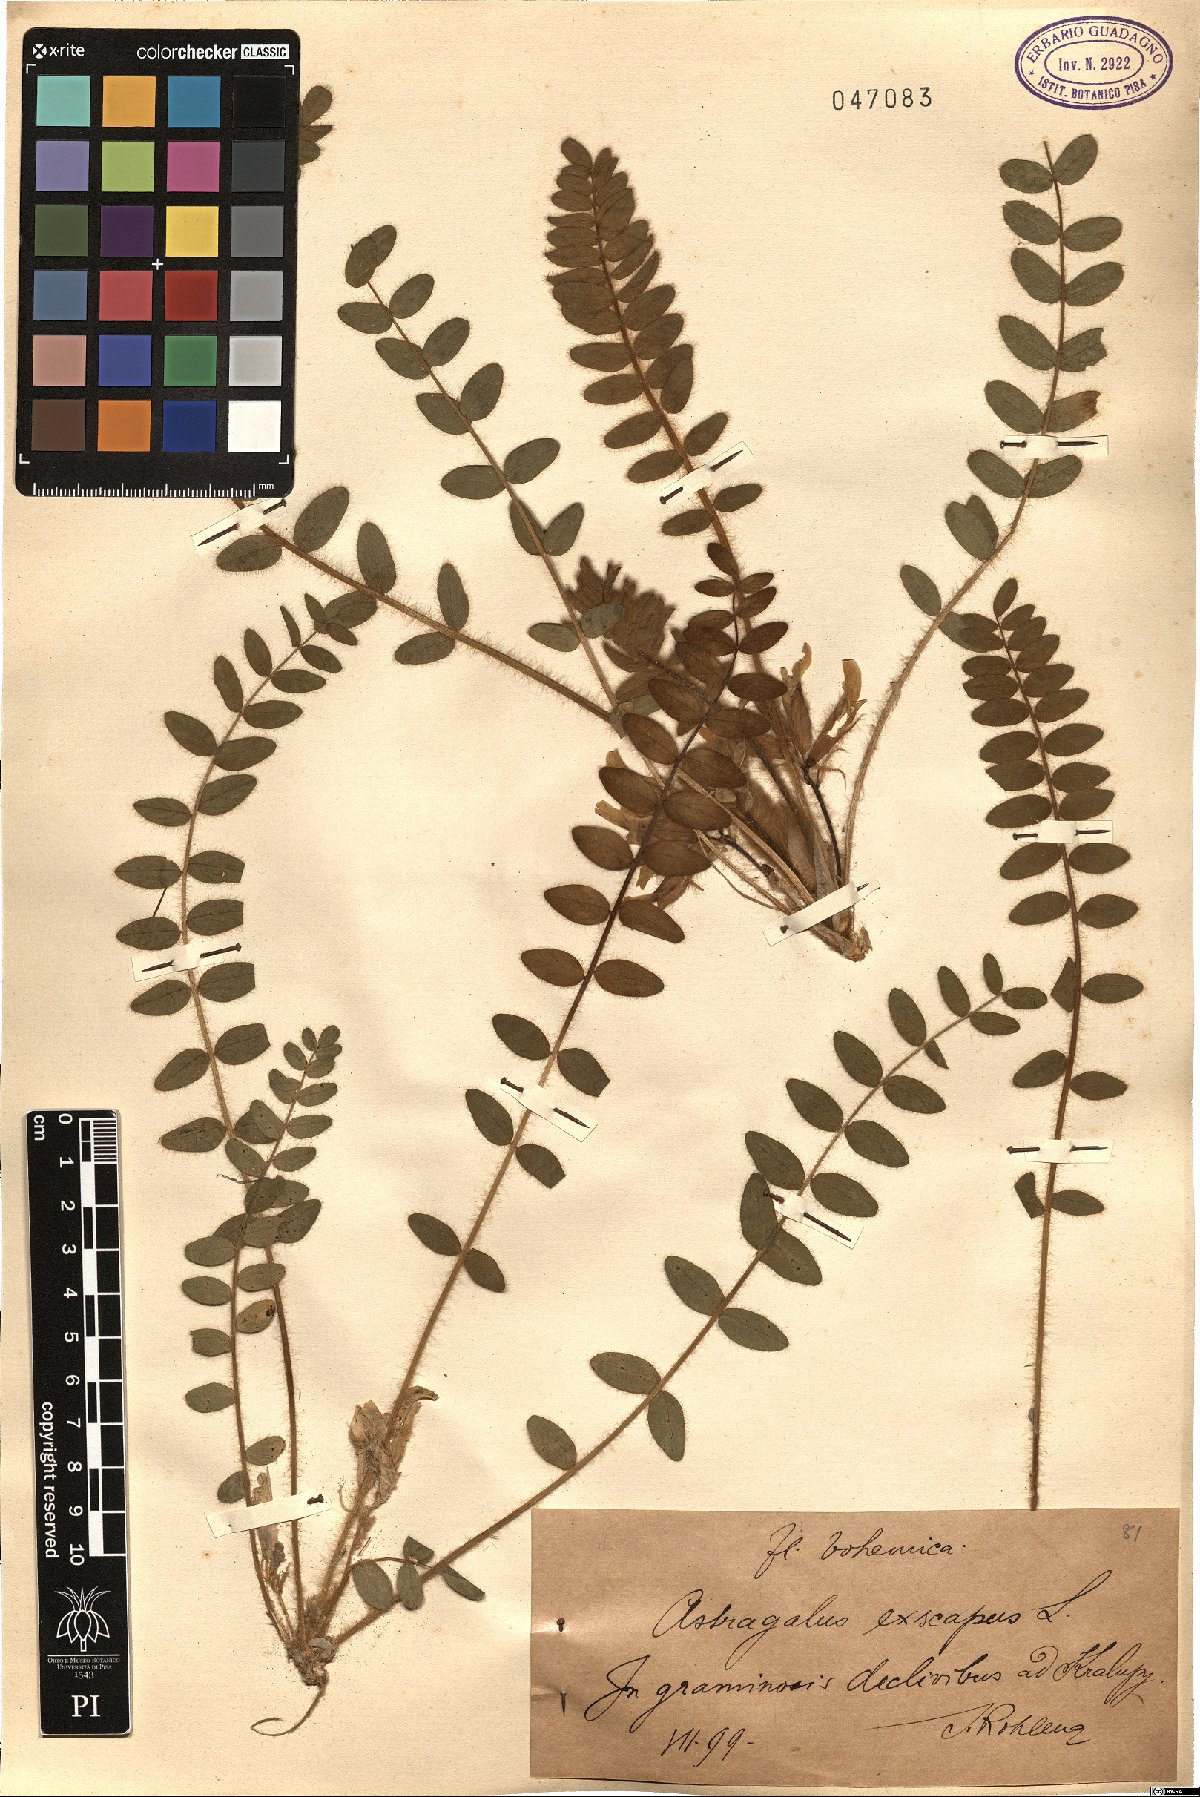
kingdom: Plantae
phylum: Tracheophyta
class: Magnoliopsida
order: Fabales
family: Fabaceae
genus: Astragalus
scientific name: Astragalus exscapus
